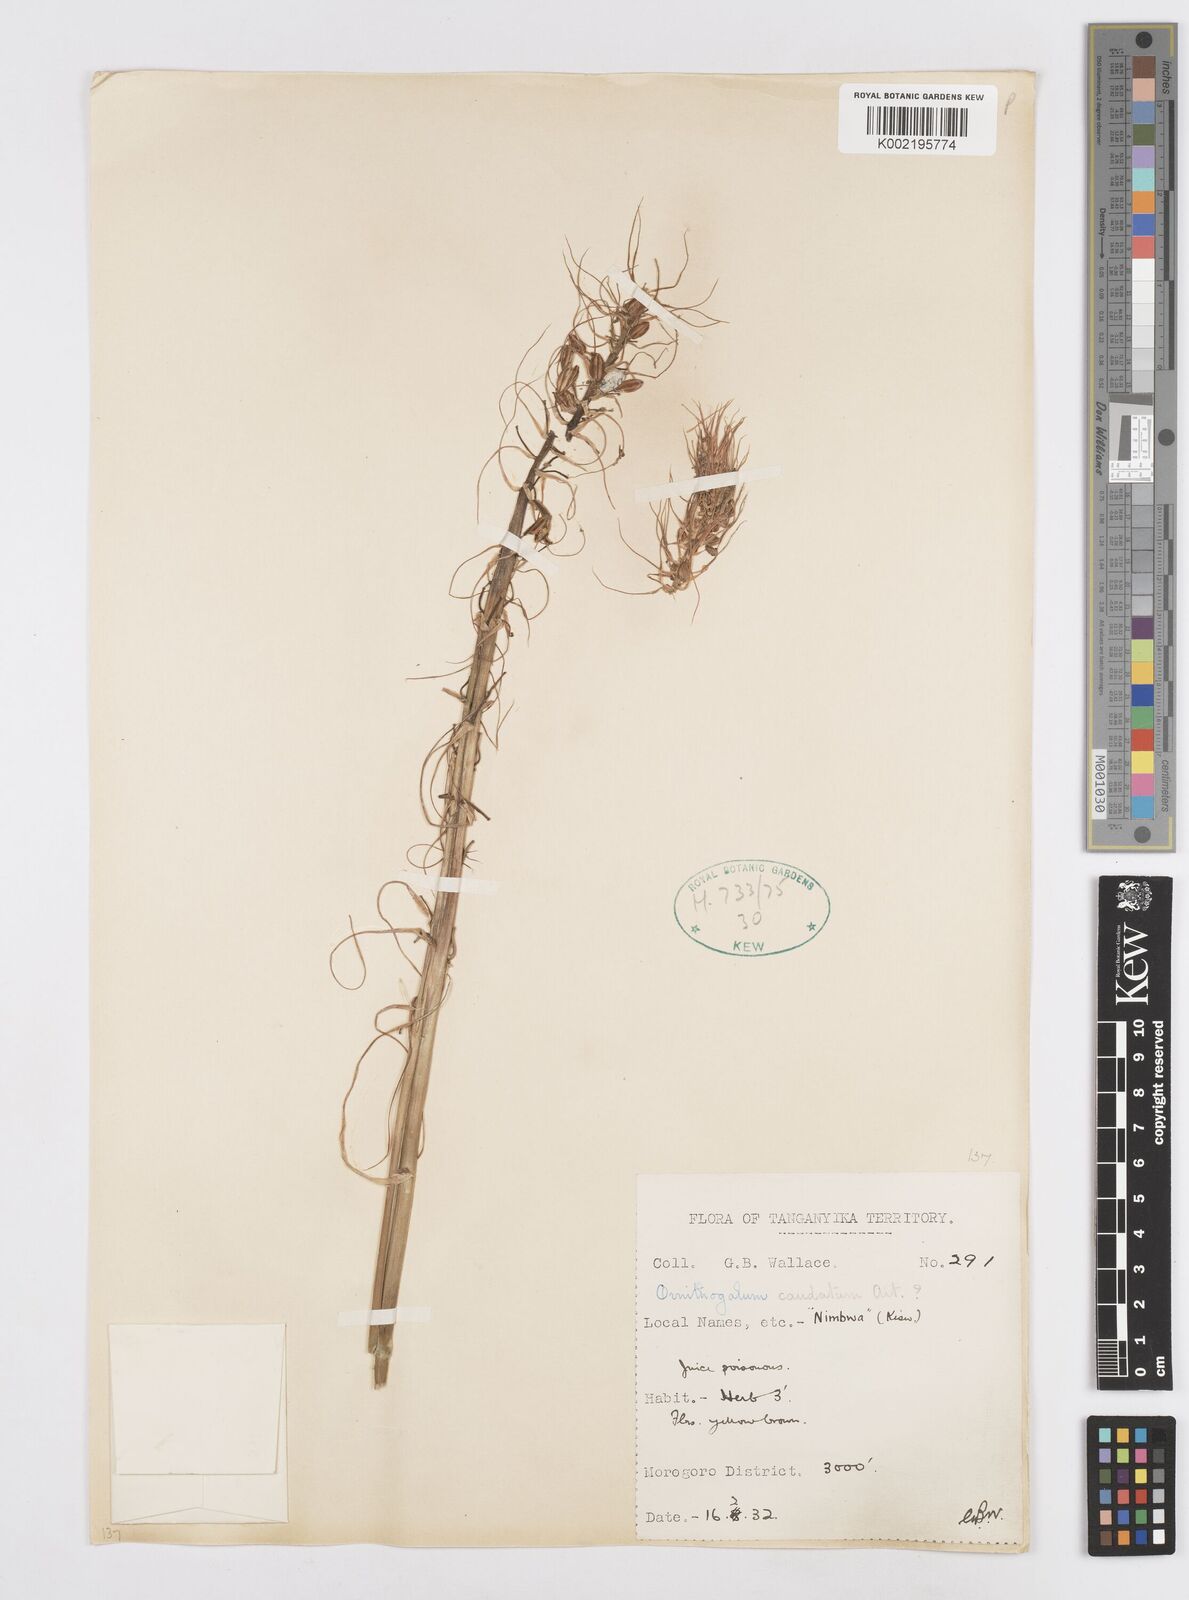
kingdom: Plantae
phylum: Tracheophyta
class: Liliopsida
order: Asparagales
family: Asparagaceae
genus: Ornithogalum
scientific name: Ornithogalum
